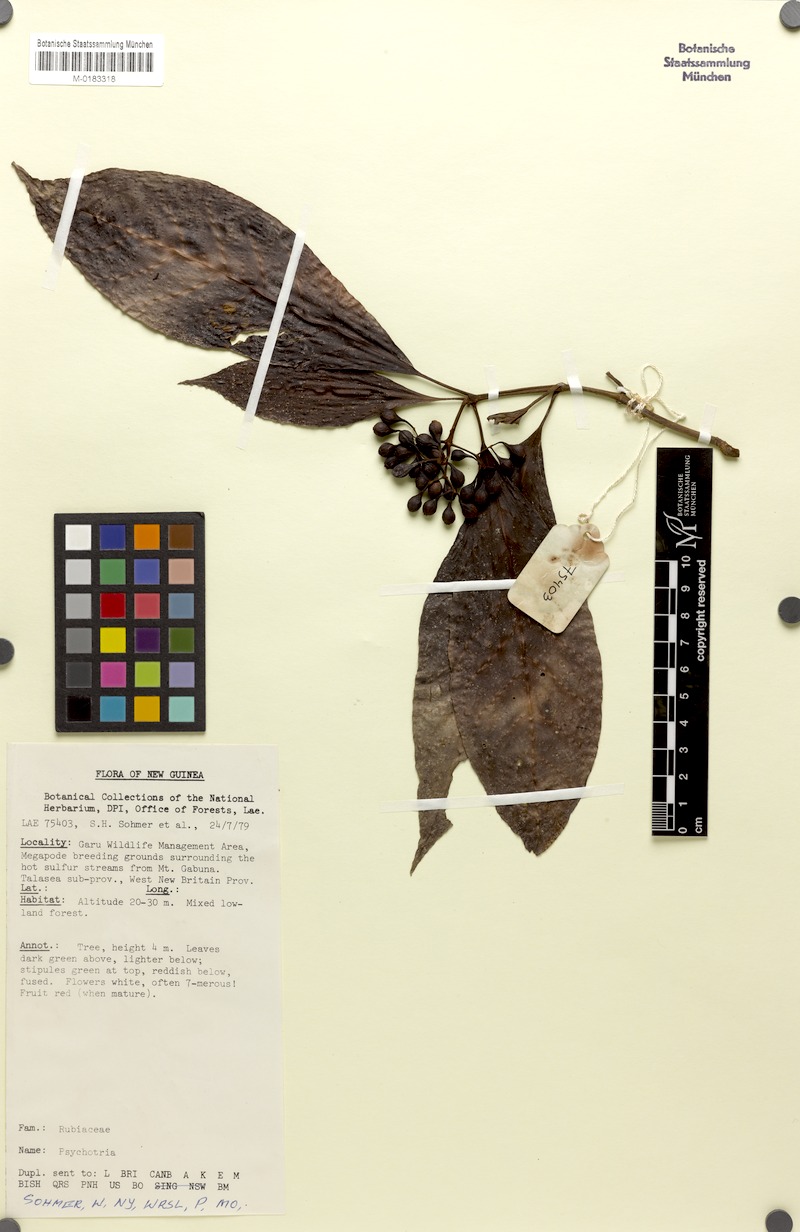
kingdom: Plantae
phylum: Tracheophyta
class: Magnoliopsida
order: Gentianales
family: Rubiaceae
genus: Psychotria
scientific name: Psychotria talasensis
